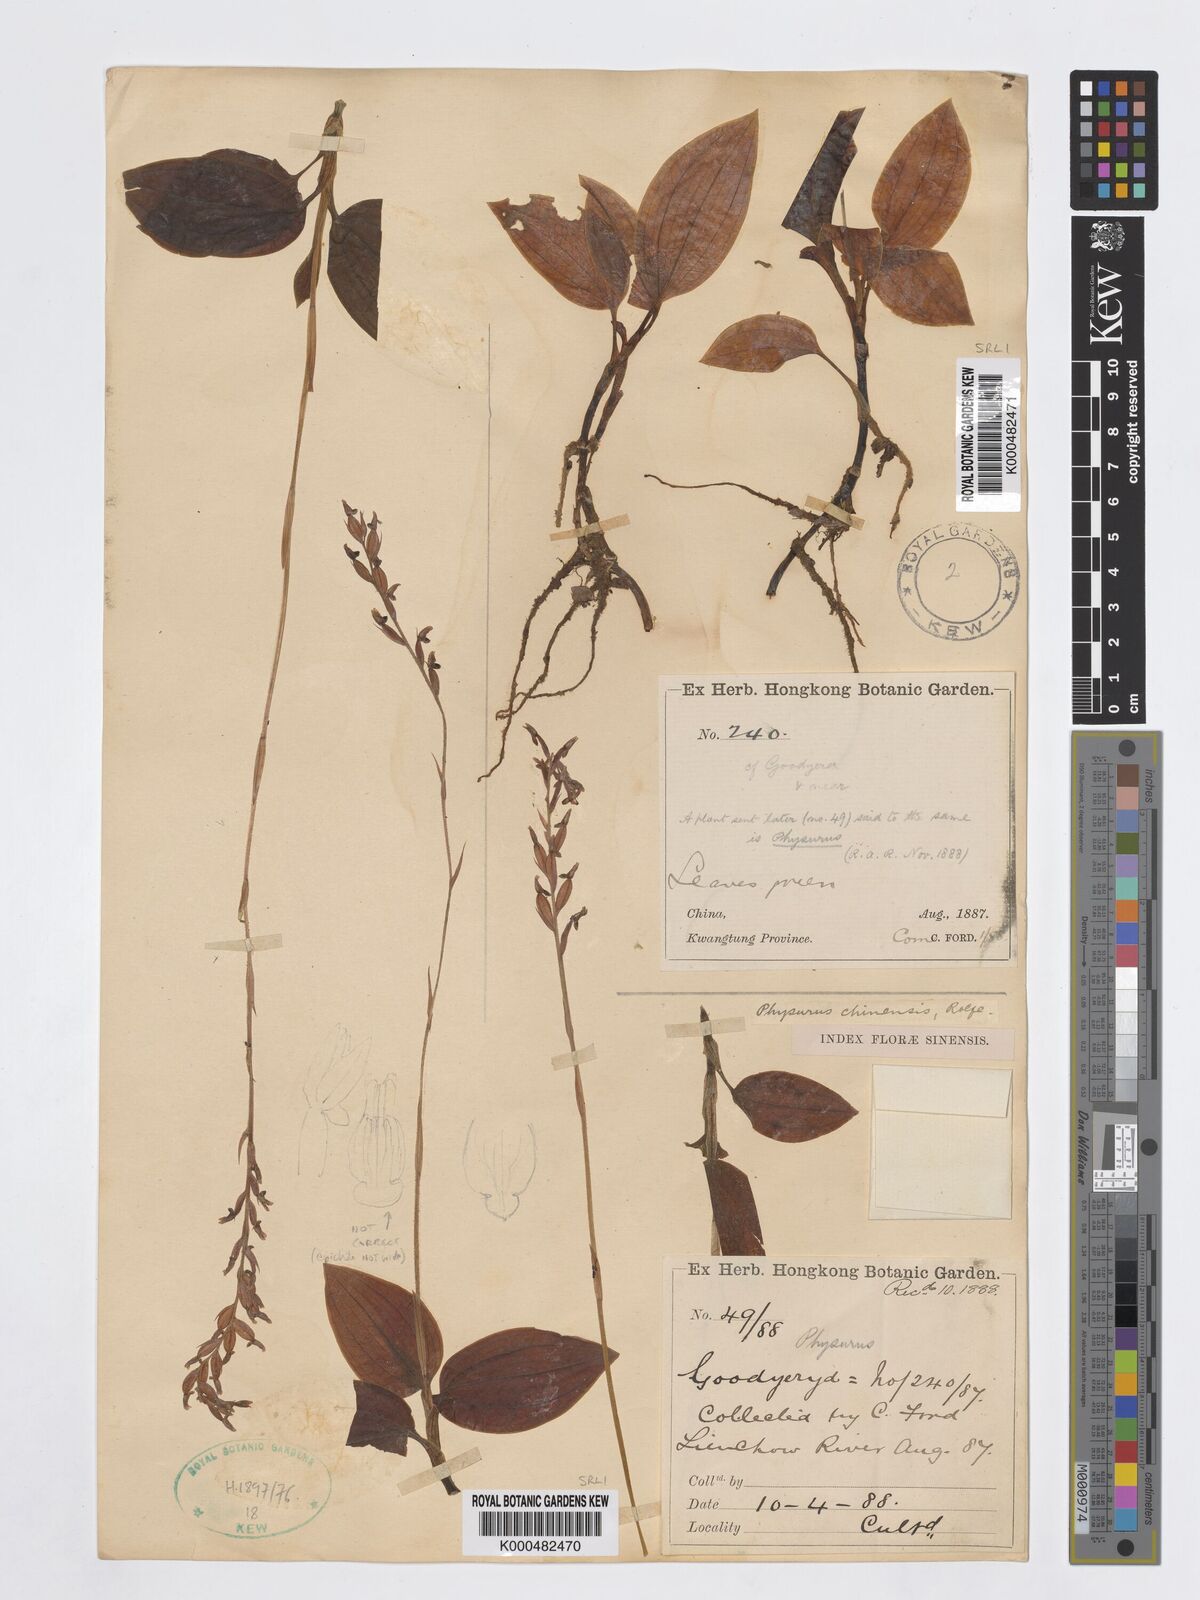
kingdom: Plantae
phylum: Tracheophyta
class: Liliopsida
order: Asparagales
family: Orchidaceae
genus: Erythrodes
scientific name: Erythrodes chinensis
